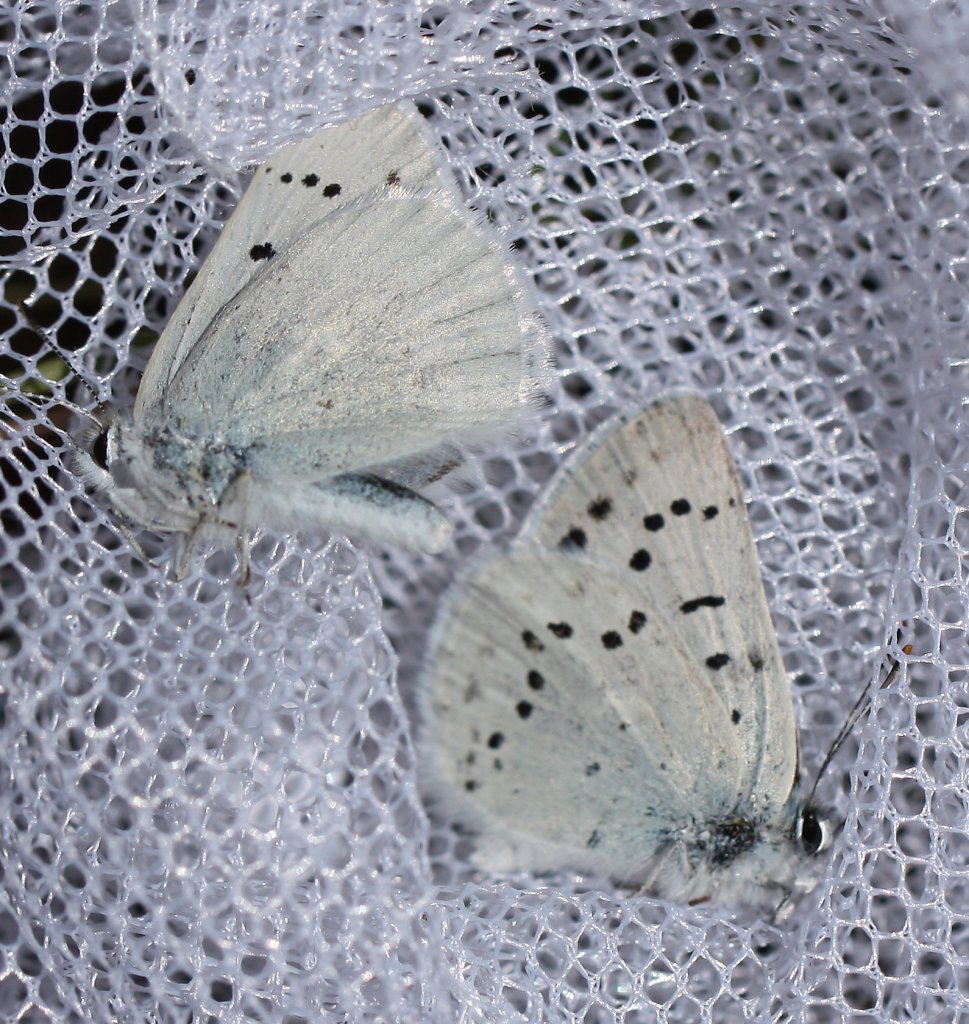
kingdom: Animalia
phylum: Arthropoda
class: Insecta
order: Lepidoptera
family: Lycaenidae
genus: Lycaena
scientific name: Lycaena heteronea
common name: Blue Copper
